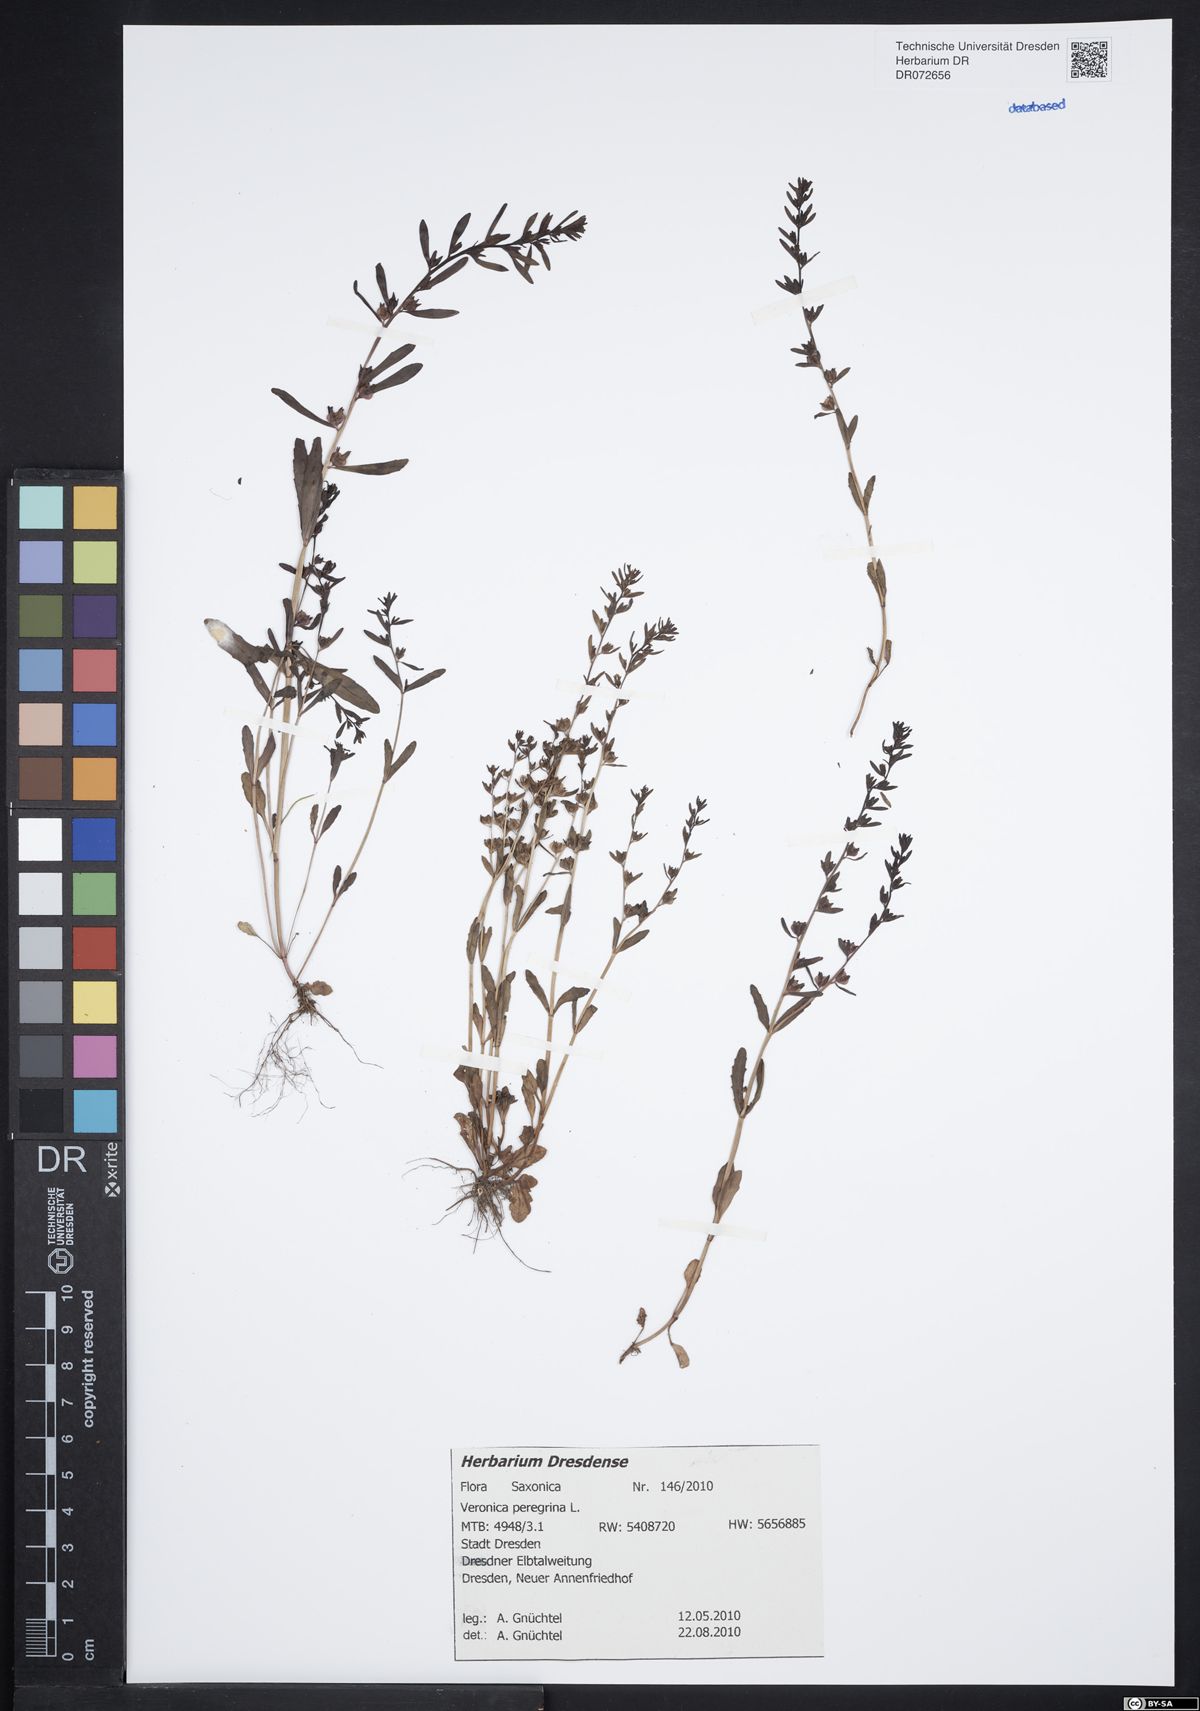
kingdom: Plantae
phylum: Tracheophyta
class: Magnoliopsida
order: Lamiales
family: Plantaginaceae
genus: Veronica
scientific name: Veronica peregrina
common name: Neckweed
